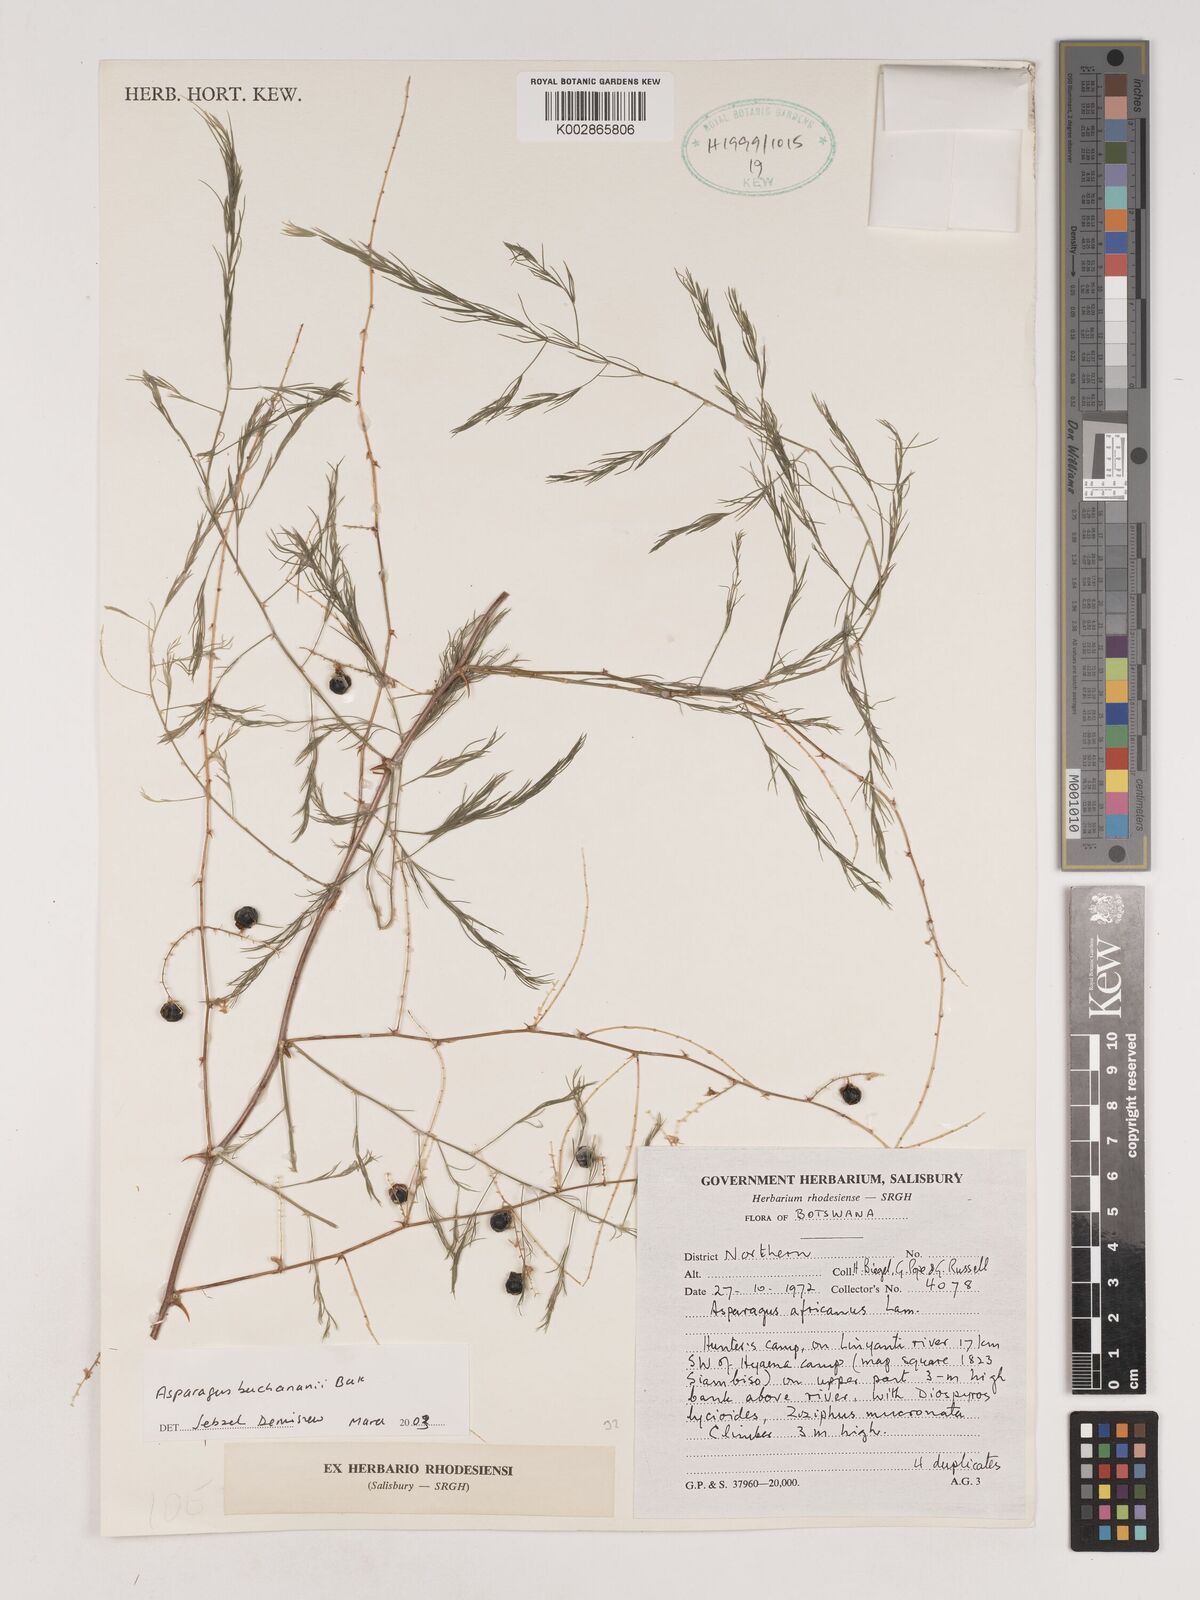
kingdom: Plantae
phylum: Tracheophyta
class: Liliopsida
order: Asparagales
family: Asparagaceae
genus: Asparagus
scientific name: Asparagus buchananii
